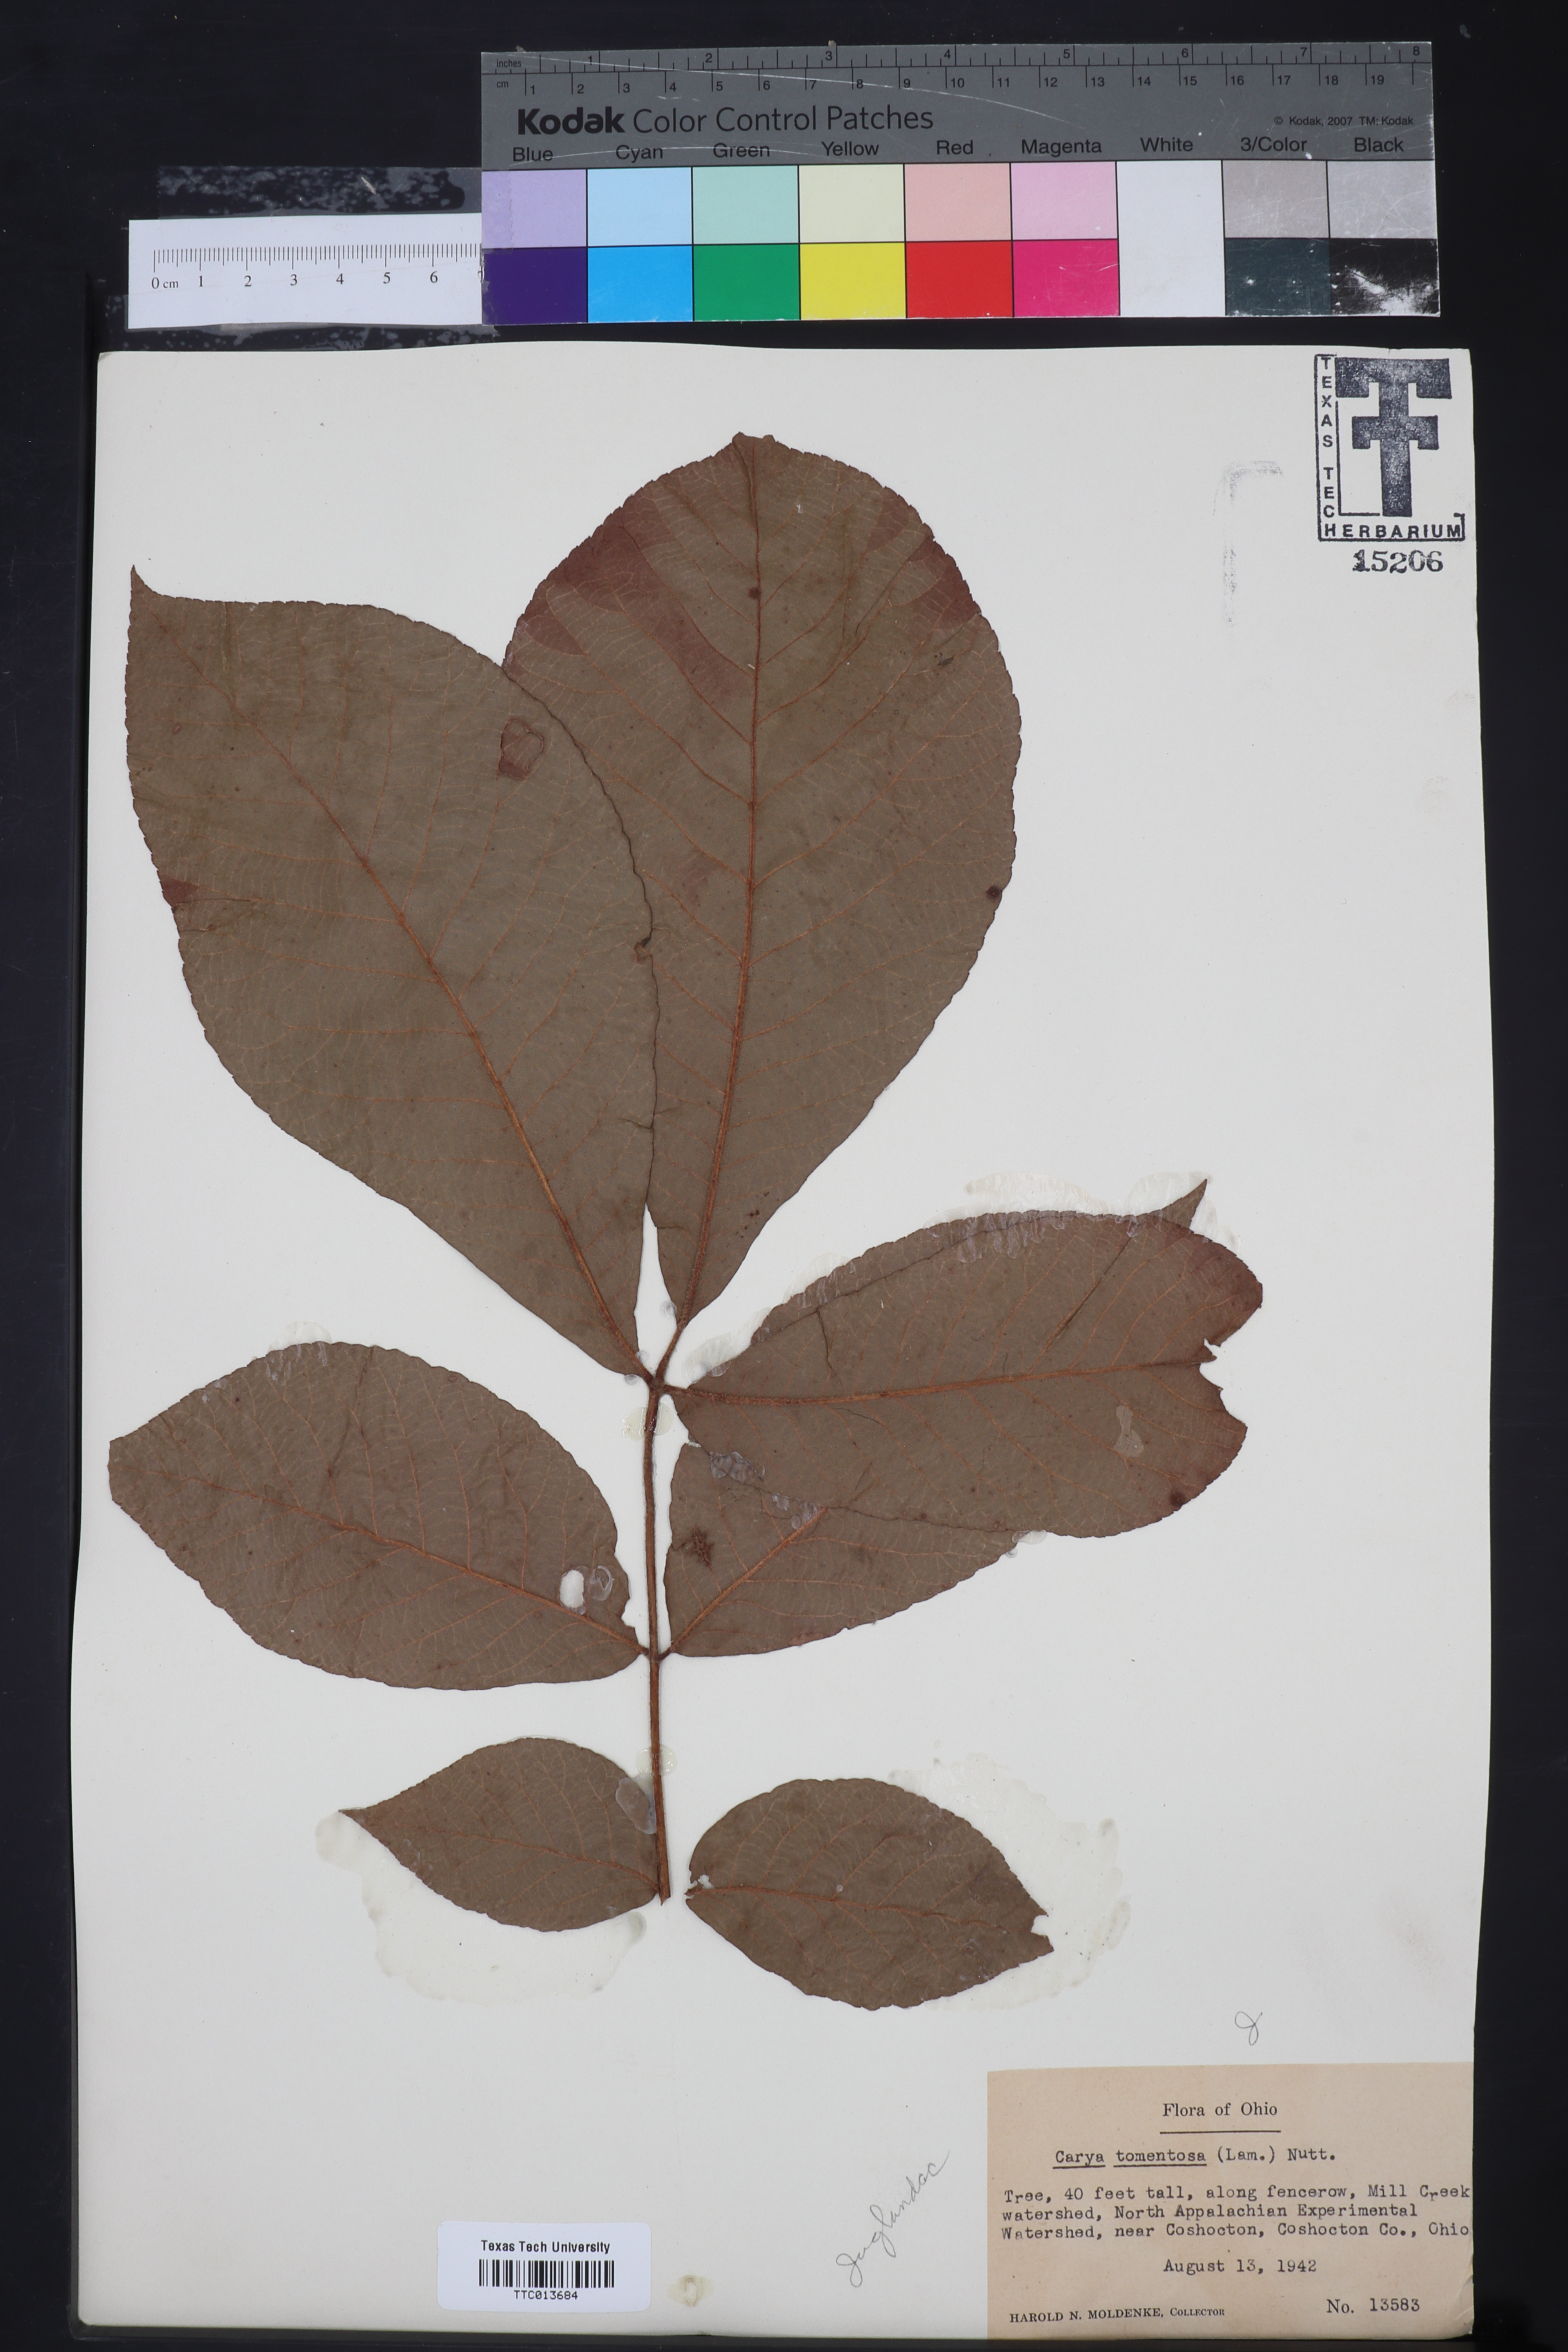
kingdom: Plantae
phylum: Tracheophyta
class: Magnoliopsida
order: Fagales
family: Juglandaceae
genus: Carya
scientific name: Carya alba
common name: Mockernut hickory
